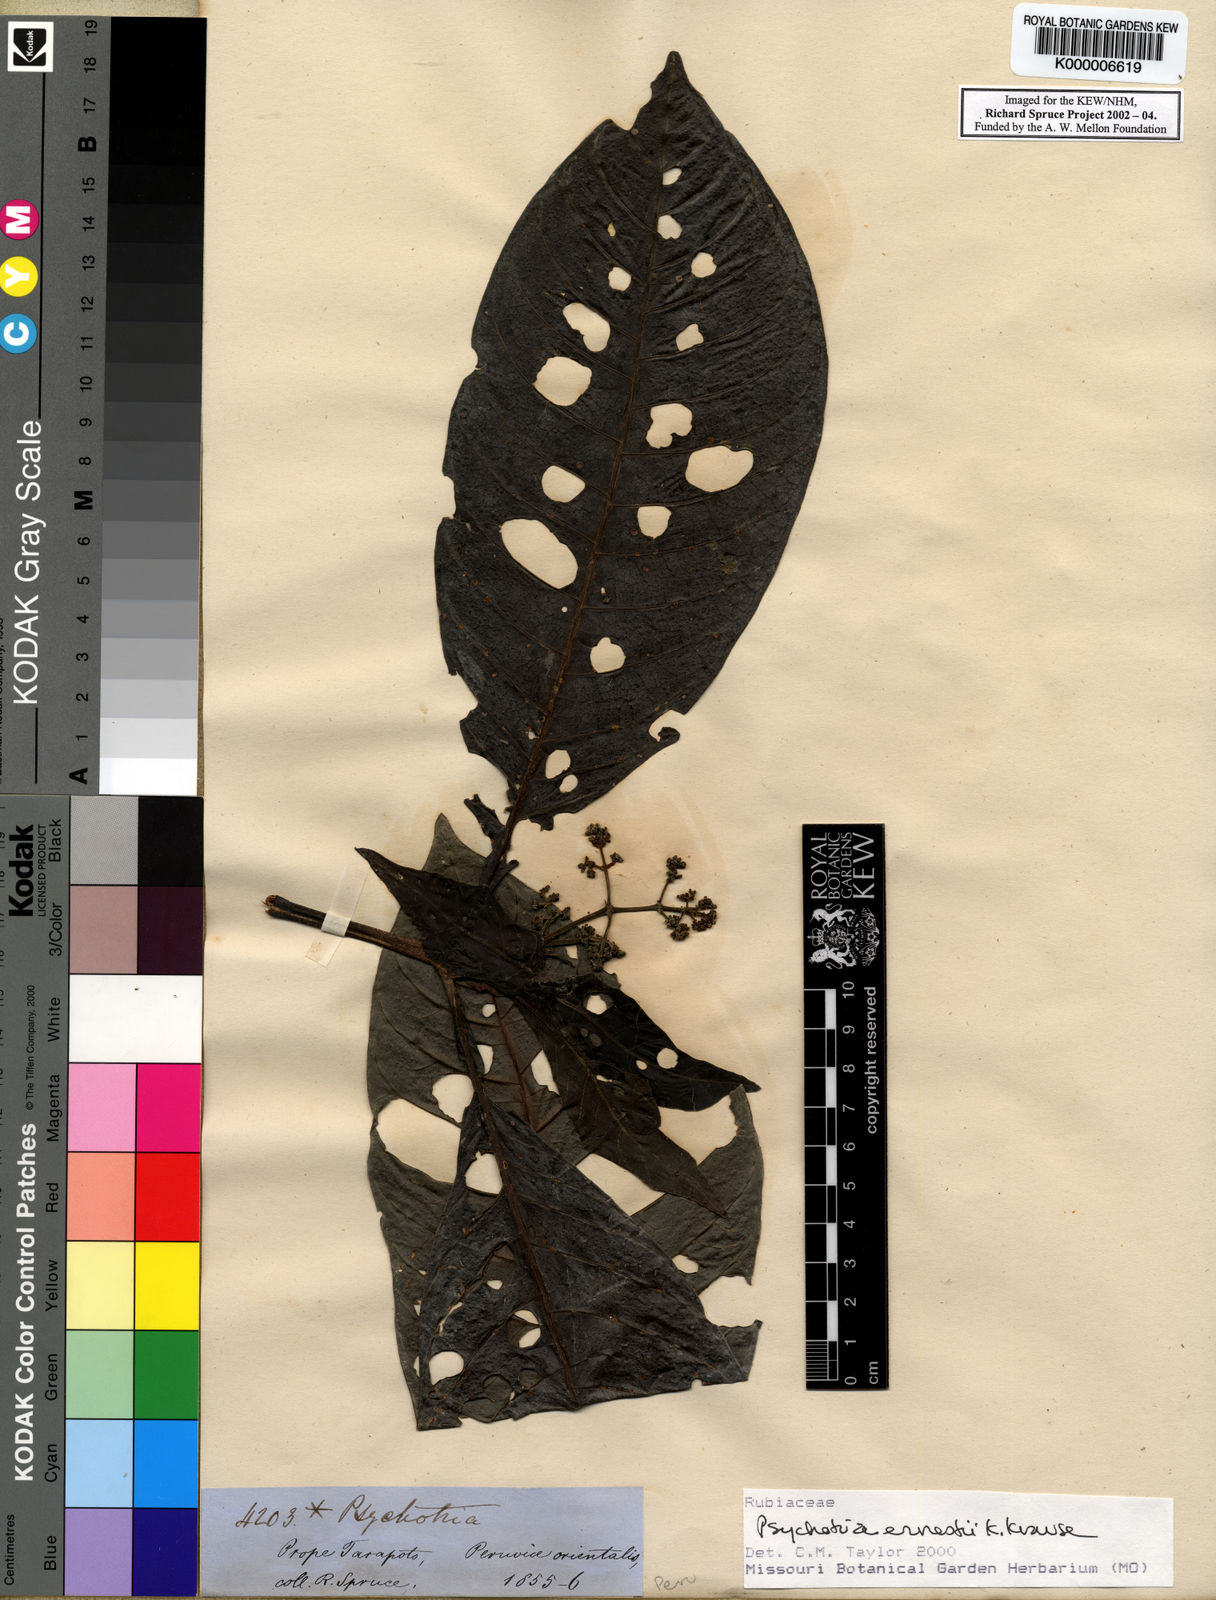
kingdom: Plantae
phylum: Tracheophyta
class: Magnoliopsida
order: Gentianales
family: Rubiaceae
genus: Psychotria
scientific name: Psychotria guianensis
